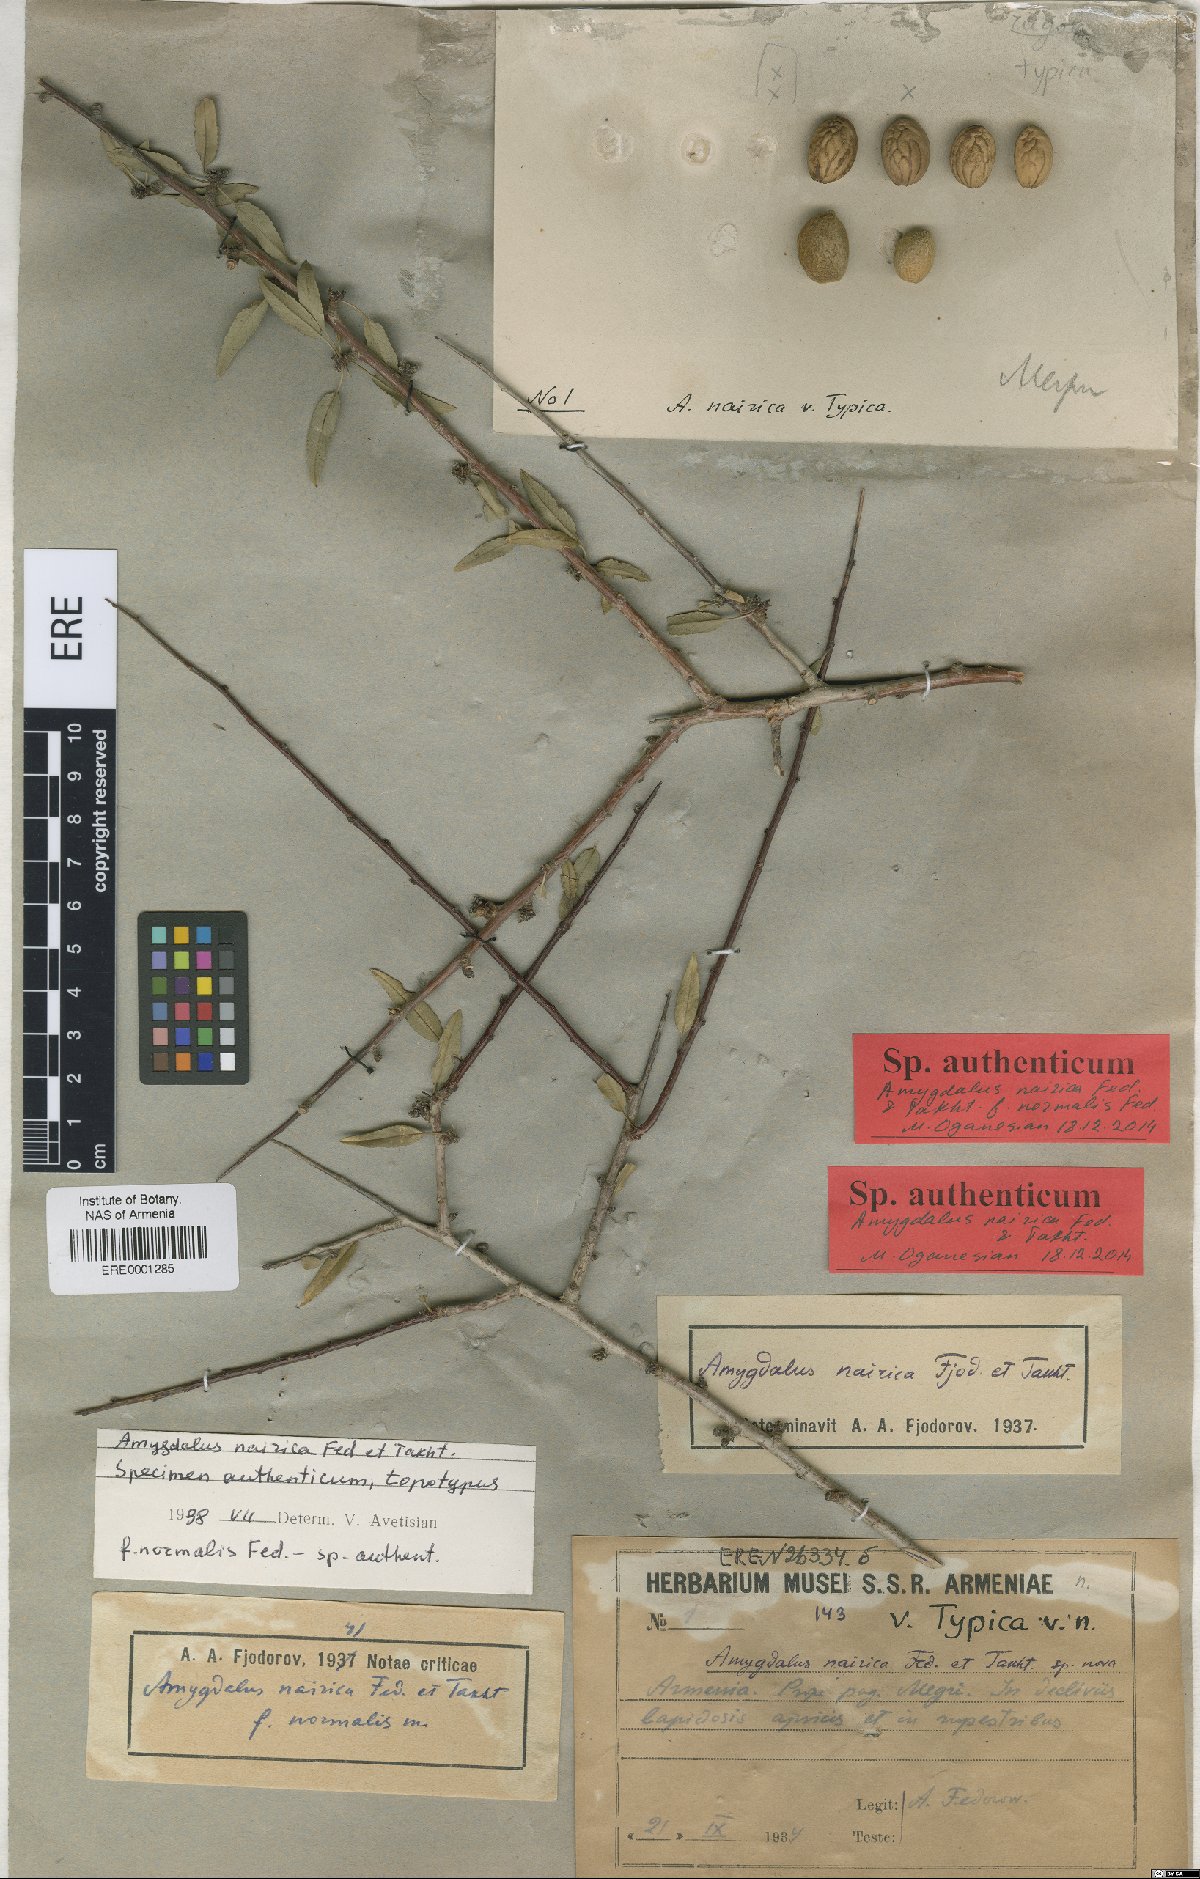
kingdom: Plantae
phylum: Tracheophyta
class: Magnoliopsida
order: Rosales
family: Rosaceae
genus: Prunus
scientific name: Prunus nairica
